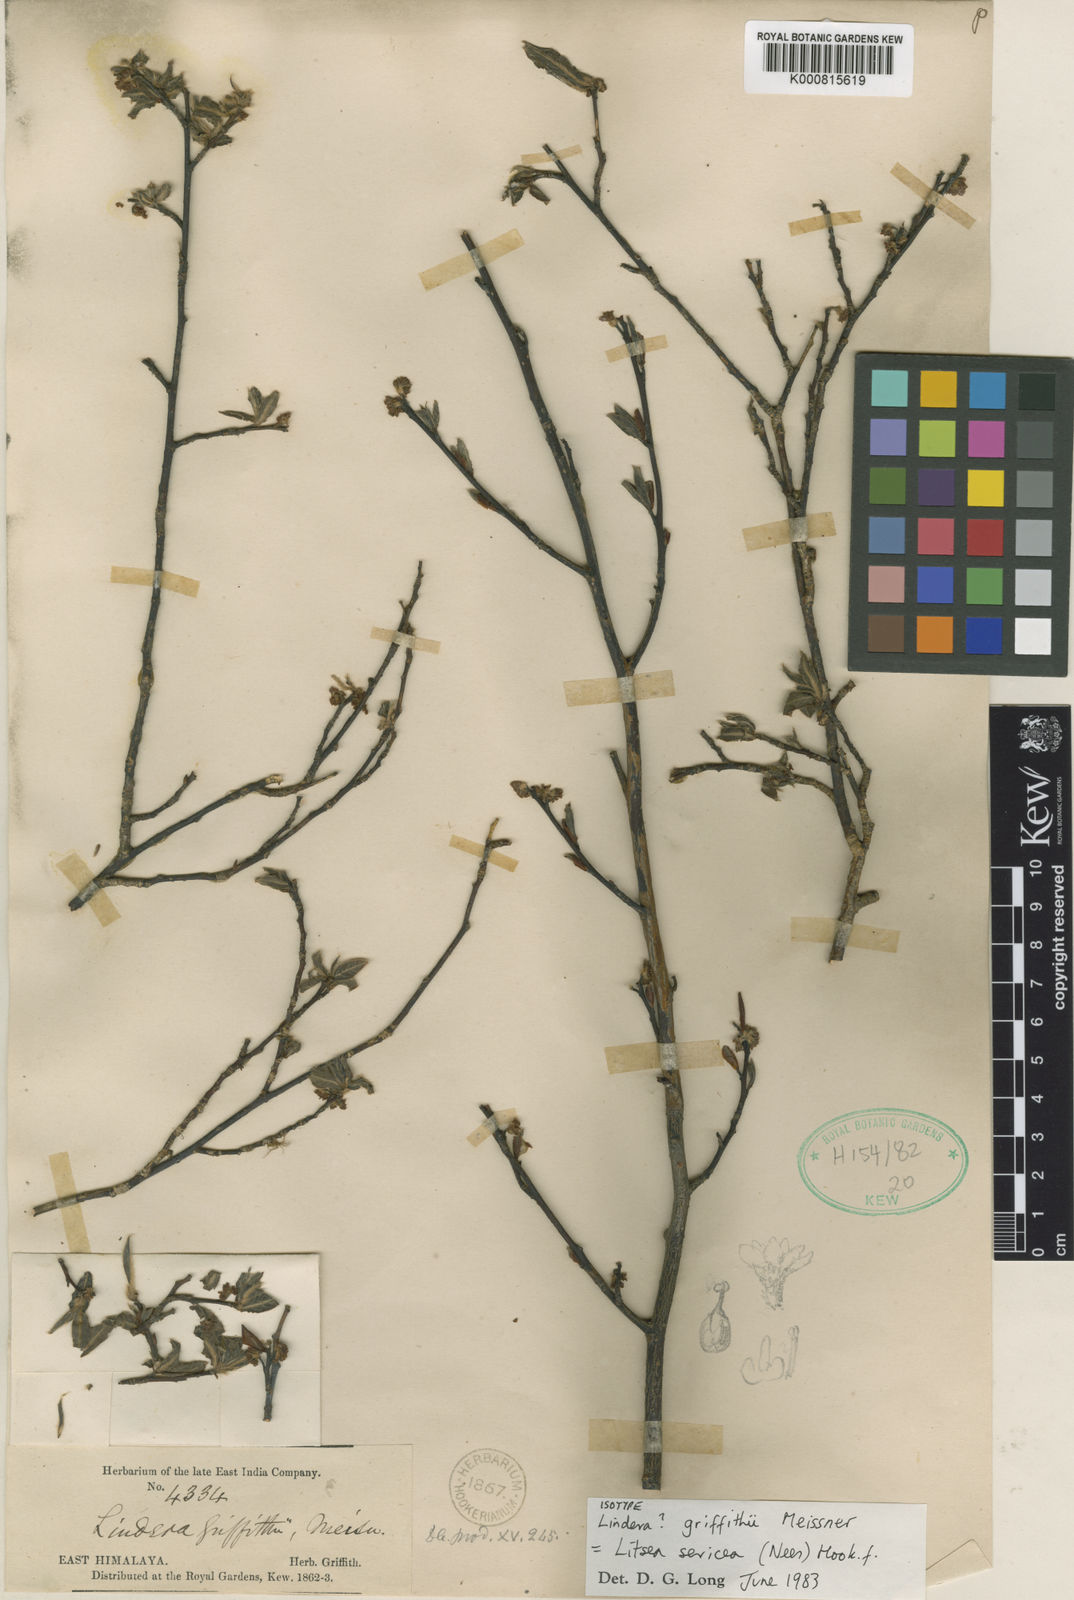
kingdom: Plantae
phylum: Tracheophyta
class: Magnoliopsida
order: Laurales
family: Lauraceae
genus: Litsea
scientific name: Litsea sericea
